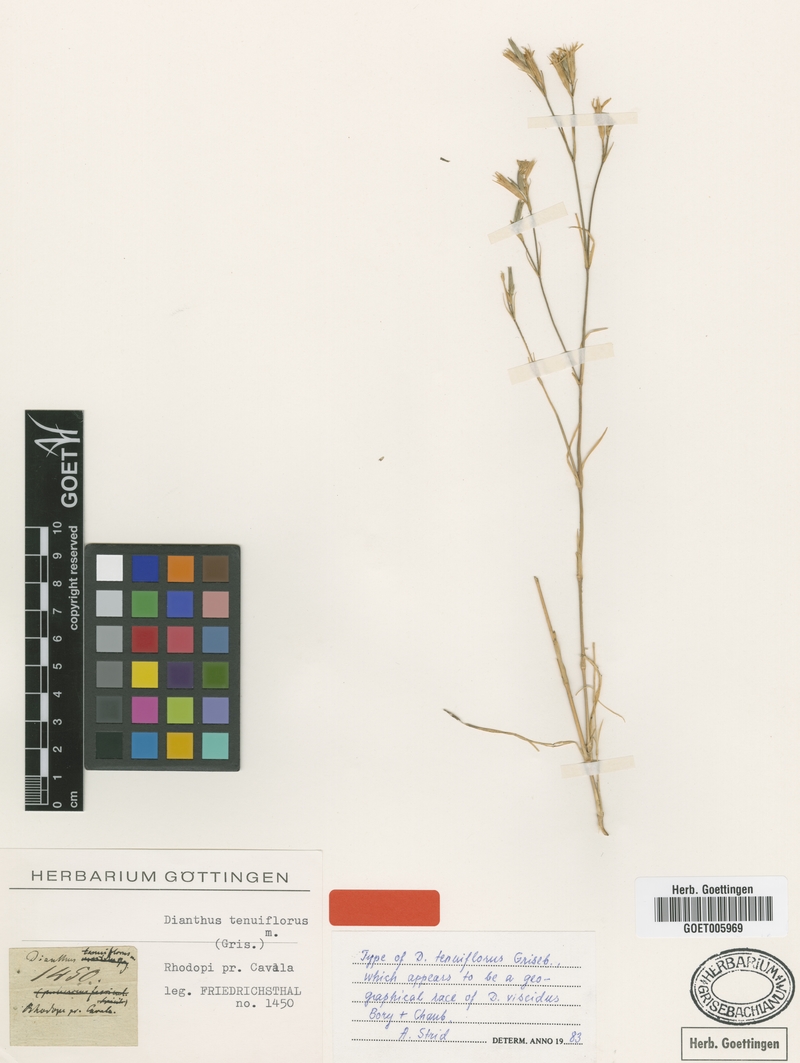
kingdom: Plantae
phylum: Tracheophyta
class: Magnoliopsida
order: Caryophyllales
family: Caryophyllaceae
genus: Dianthus
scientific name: Dianthus tenuiflorus
